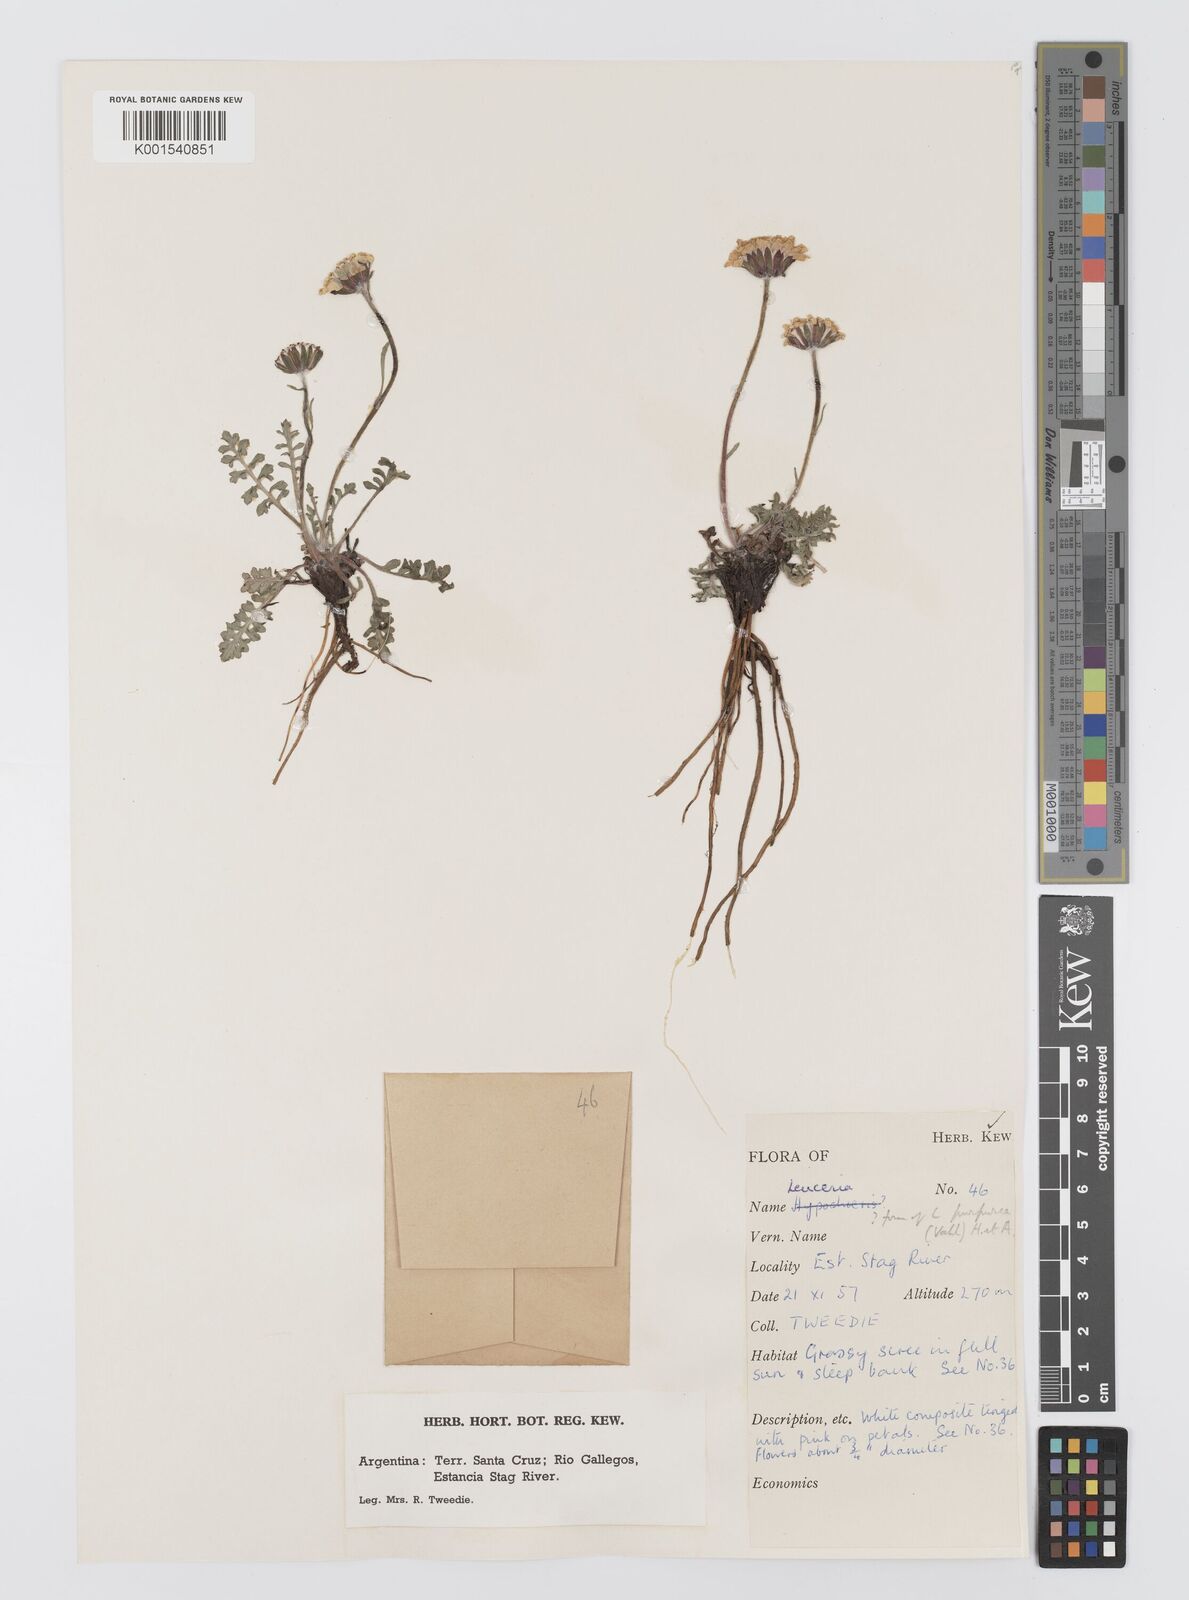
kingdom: Plantae
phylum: Tracheophyta
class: Magnoliopsida
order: Asterales
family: Asteraceae
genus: Leucheria
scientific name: Leucheria purpurea
